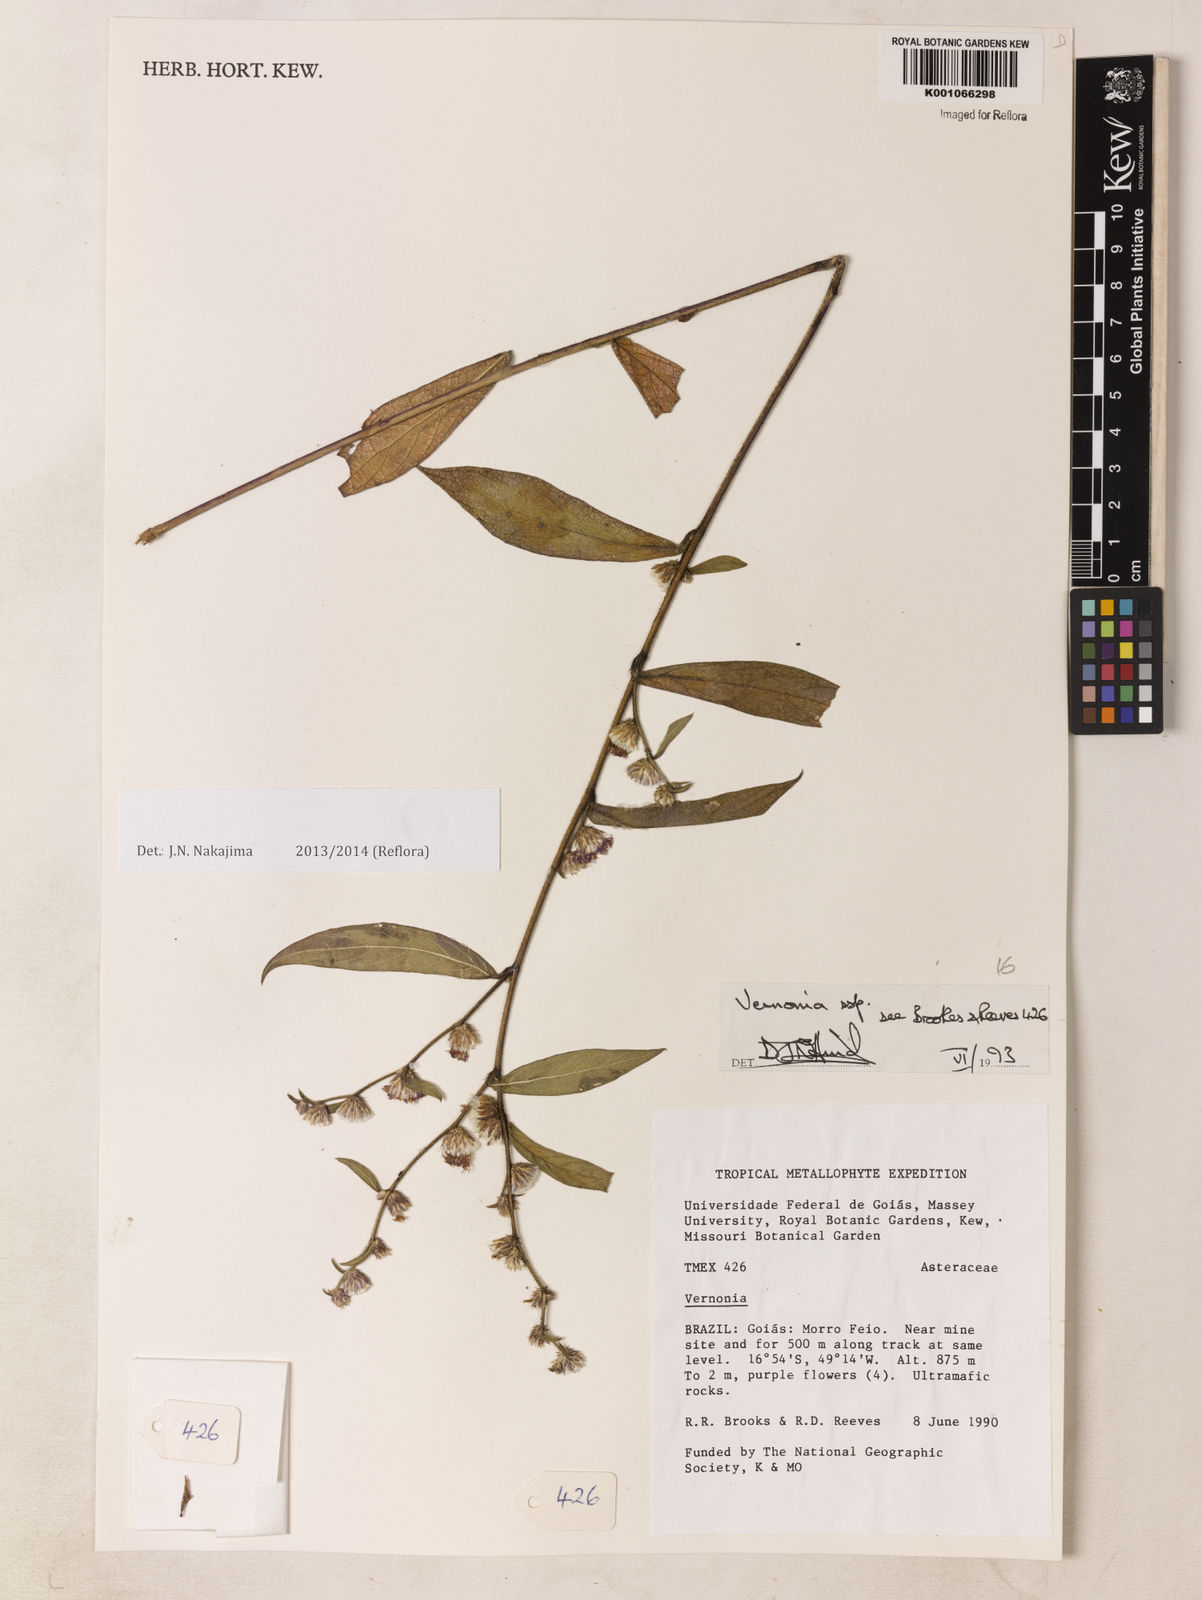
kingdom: Plantae
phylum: Tracheophyta
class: Magnoliopsida
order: Asterales
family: Asteraceae
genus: Lepidaploa
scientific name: Lepidaploa salzmannii
